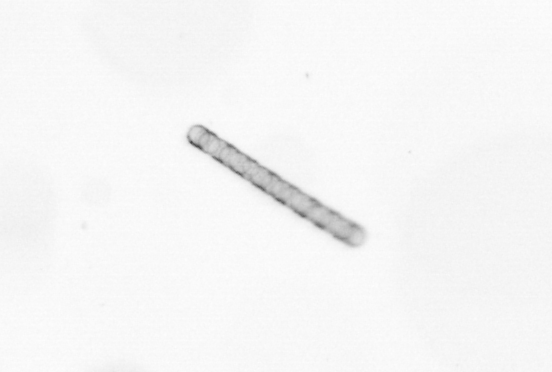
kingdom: Chromista
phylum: Ochrophyta
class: Bacillariophyceae
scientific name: Bacillariophyceae
